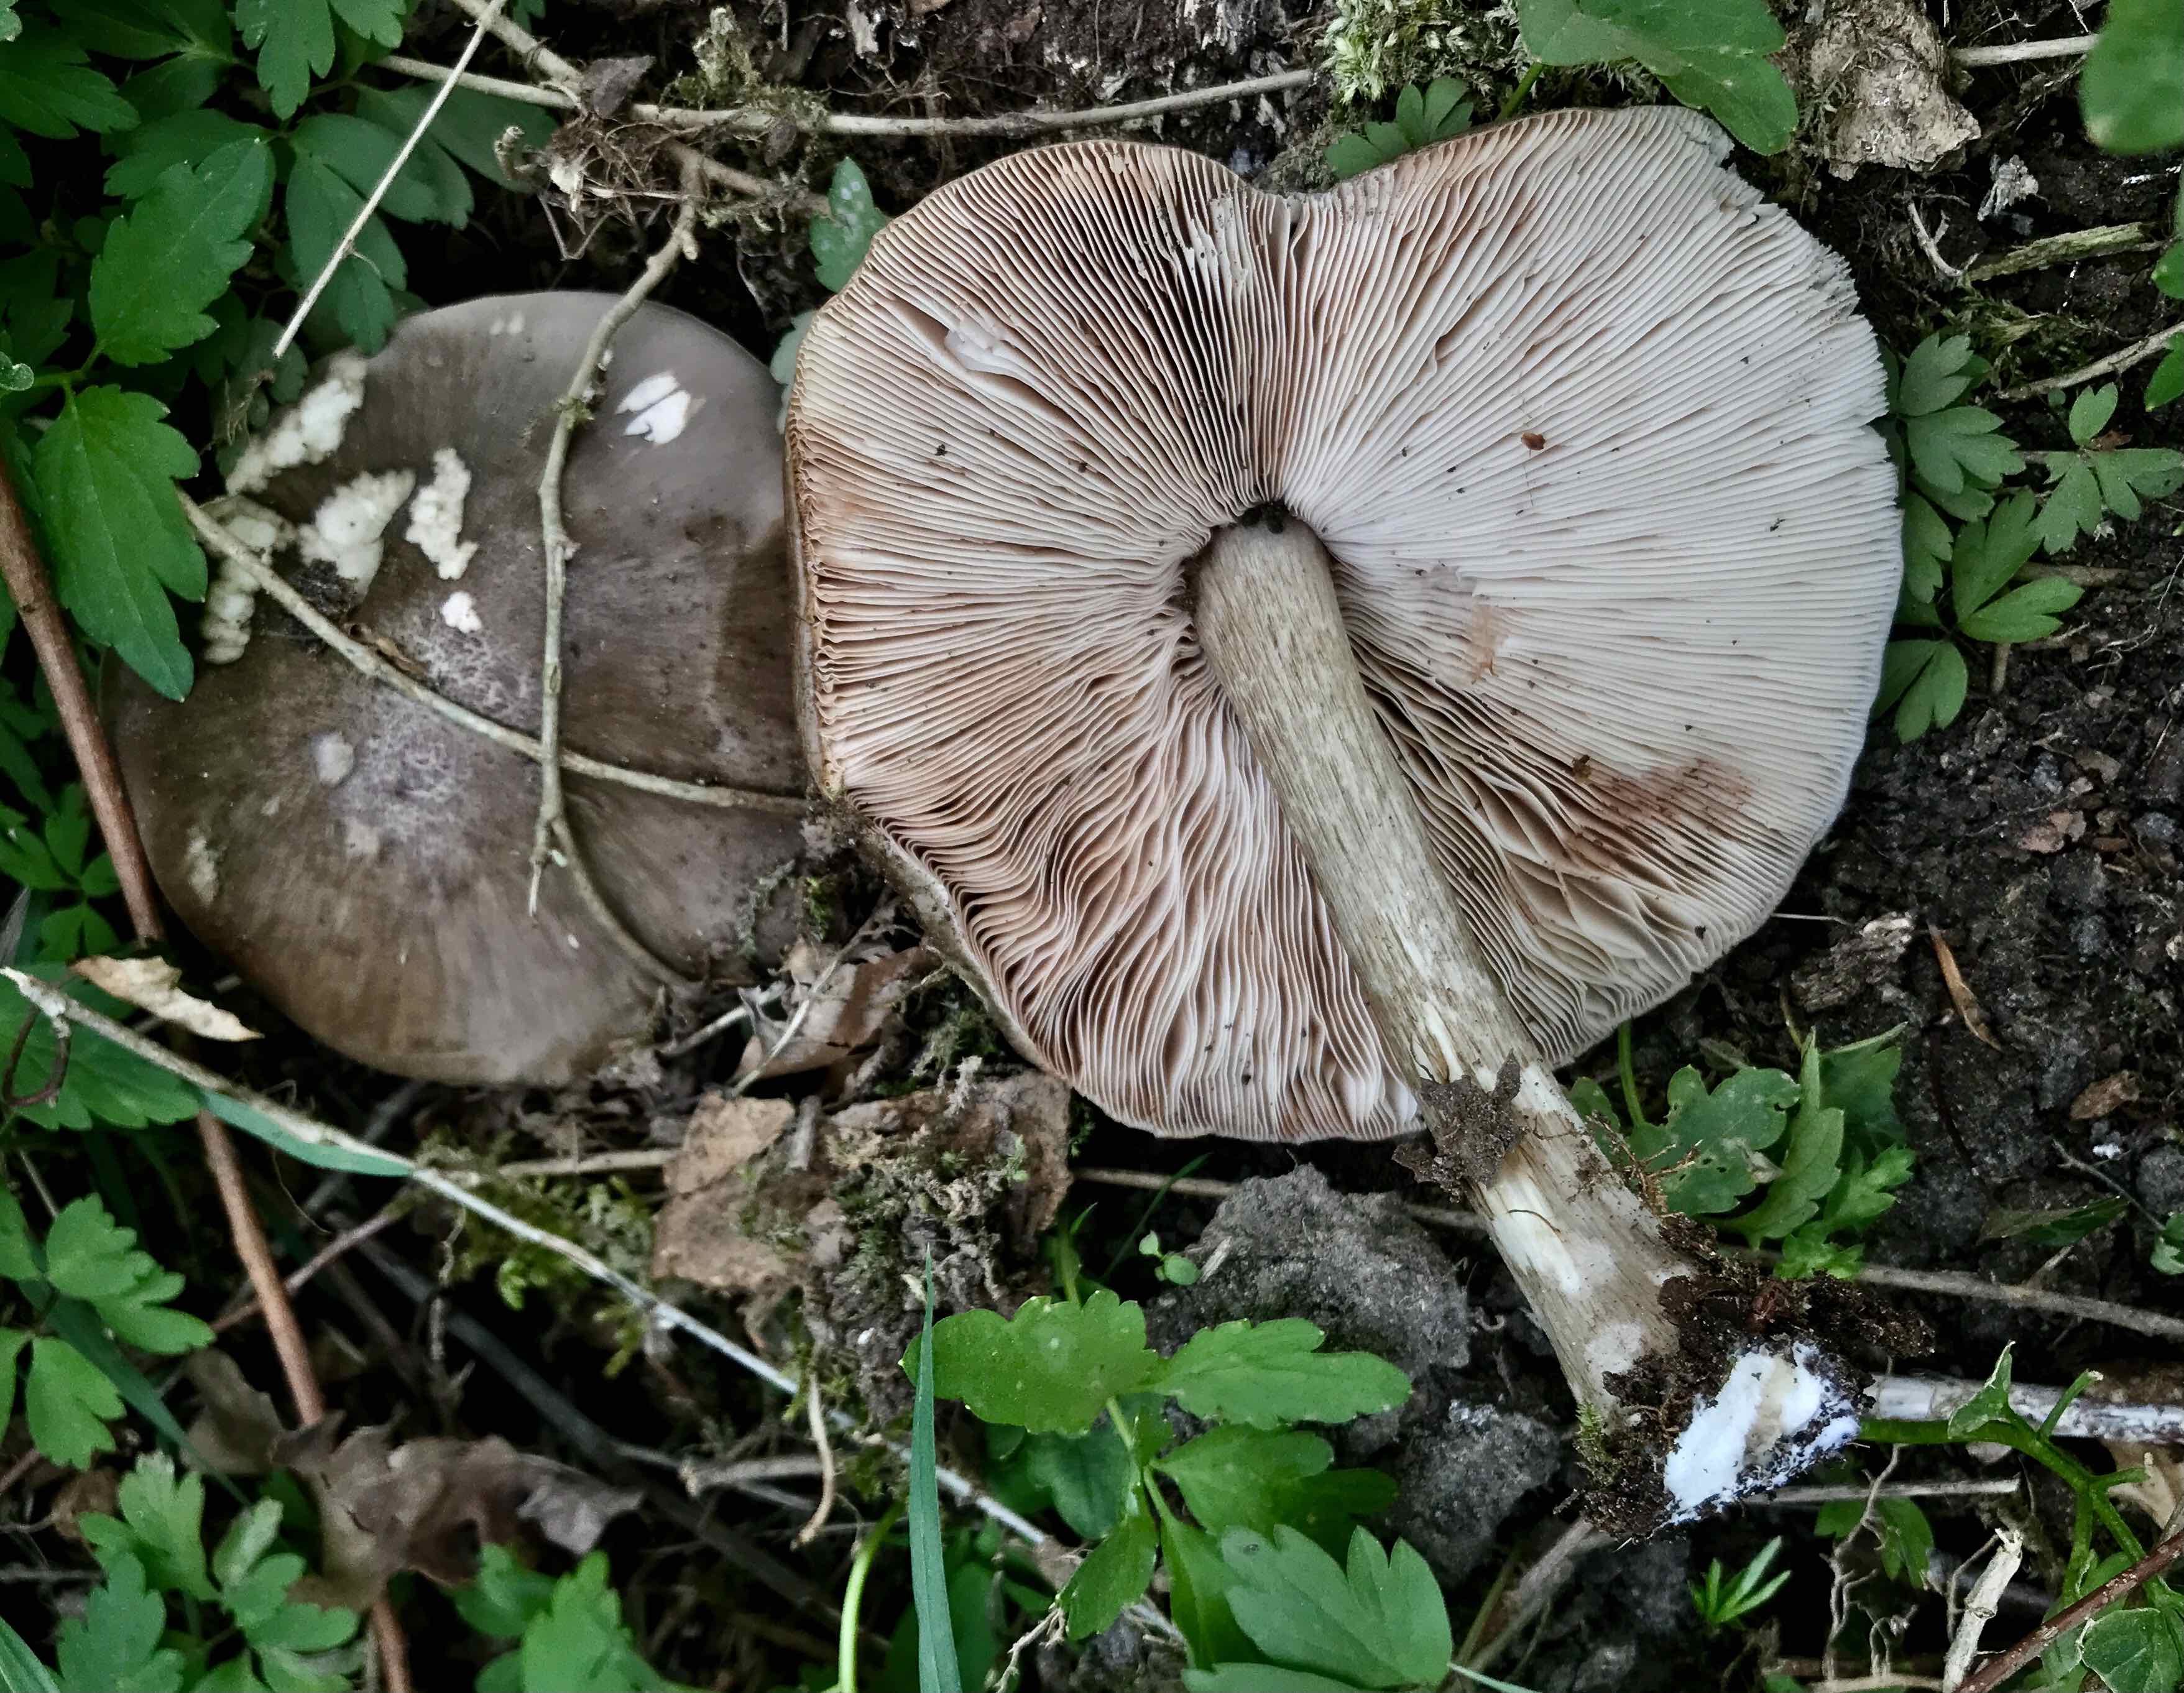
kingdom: Fungi
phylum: Basidiomycota
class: Agaricomycetes
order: Agaricales
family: Pluteaceae
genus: Pluteus
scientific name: Pluteus cervinus
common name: sodfarvet skærmhat
